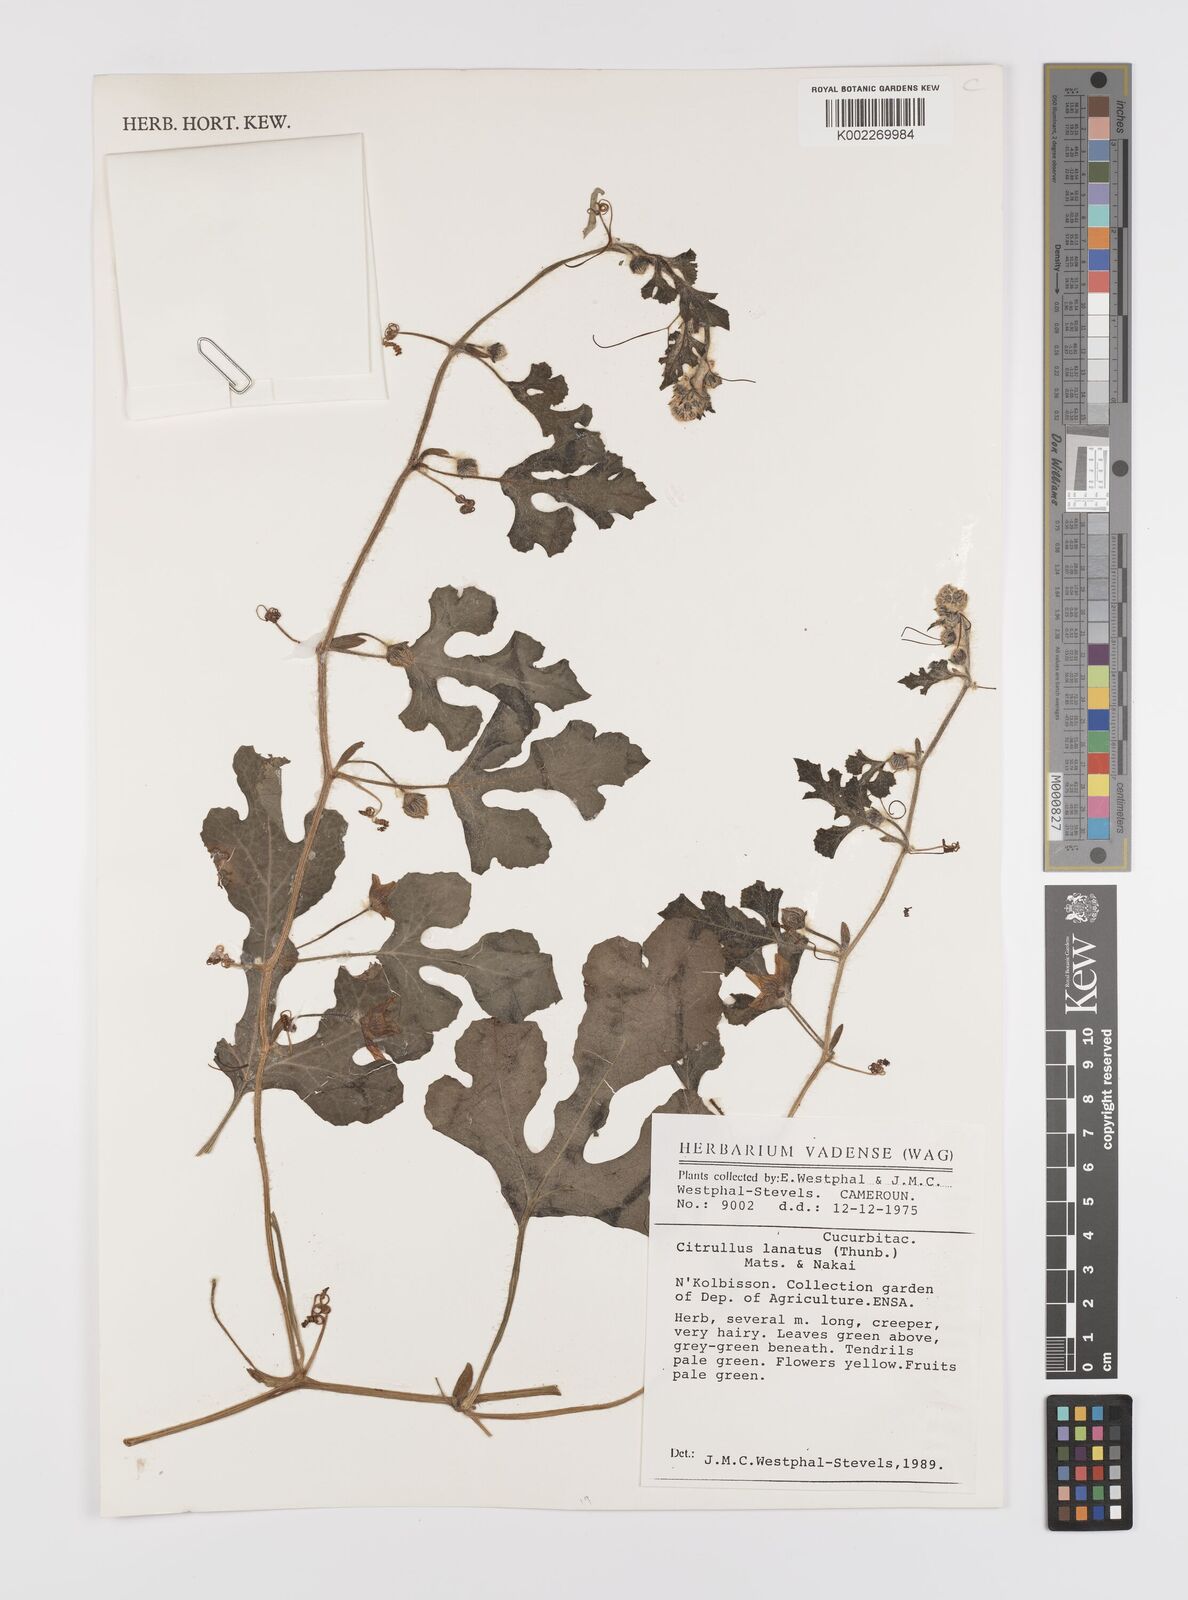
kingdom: Plantae
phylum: Tracheophyta
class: Magnoliopsida
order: Cucurbitales
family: Cucurbitaceae
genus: Citrullus
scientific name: Citrullus lanatus
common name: Watermelon
